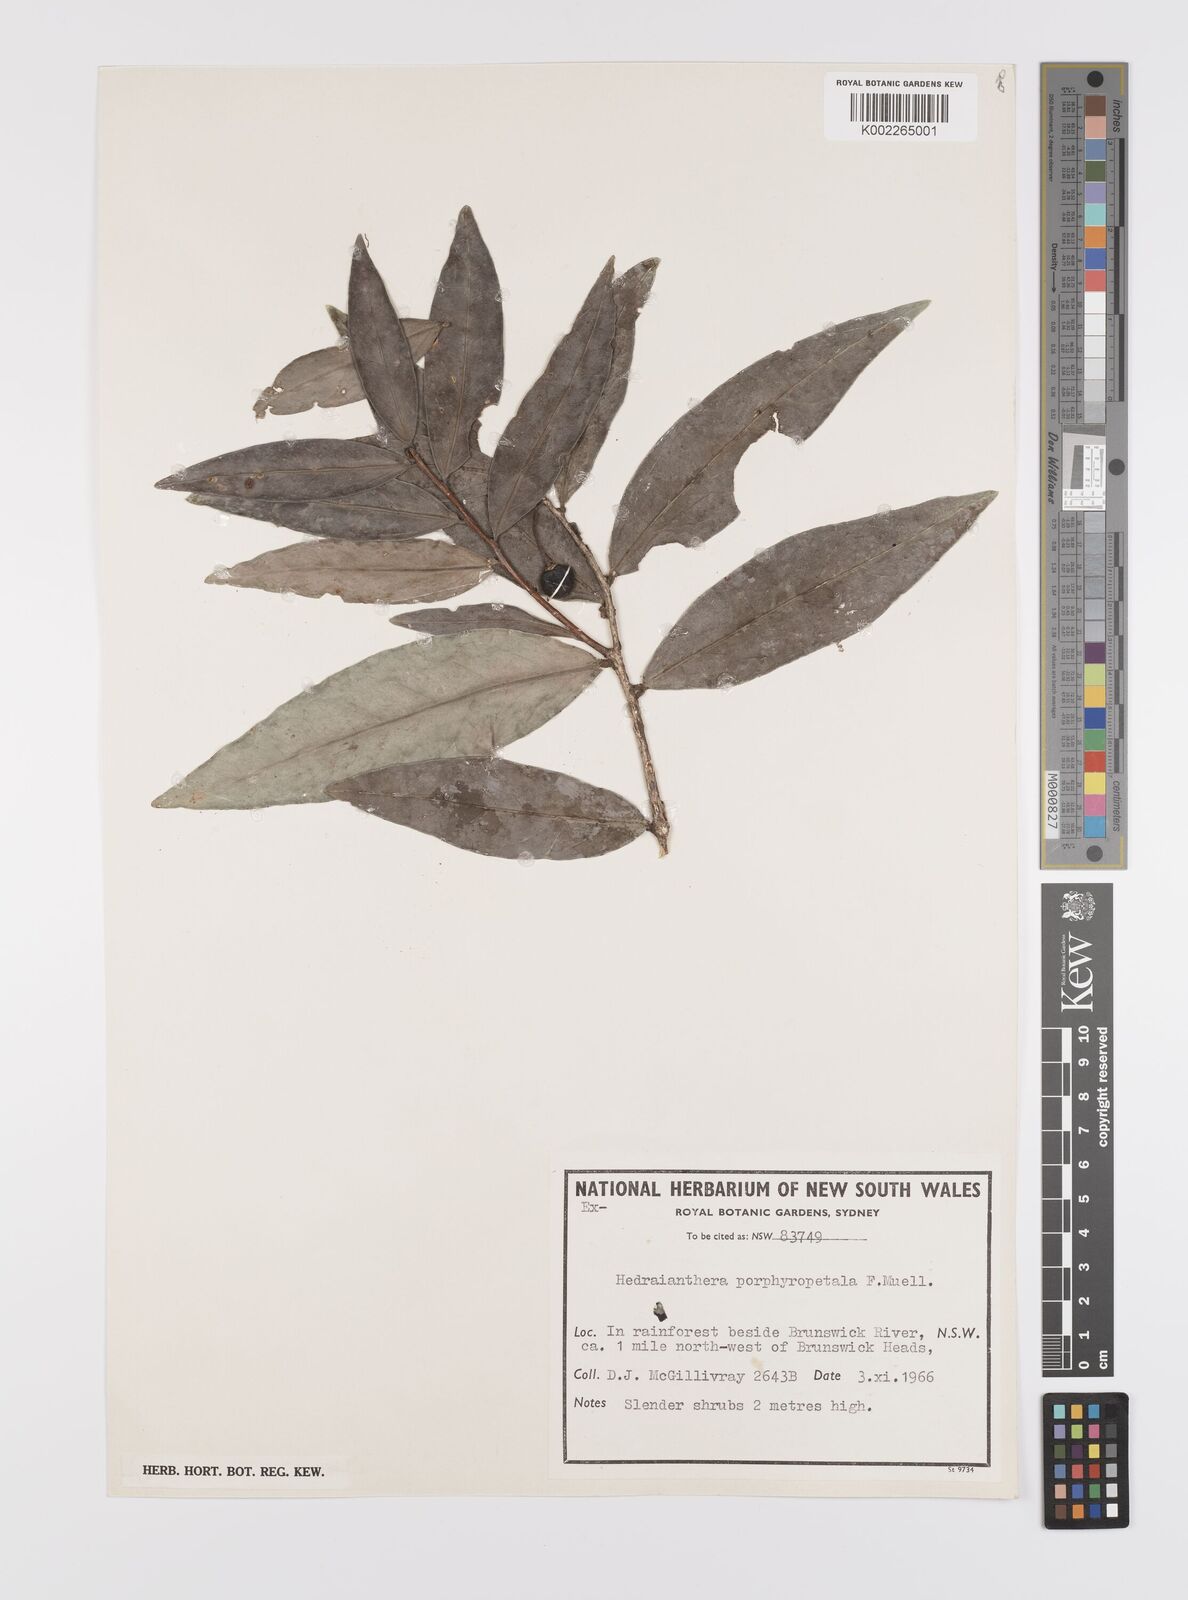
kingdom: Plantae
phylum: Tracheophyta
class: Magnoliopsida
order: Celastrales
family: Celastraceae
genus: Hedraianthera
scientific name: Hedraianthera porphyropetala
